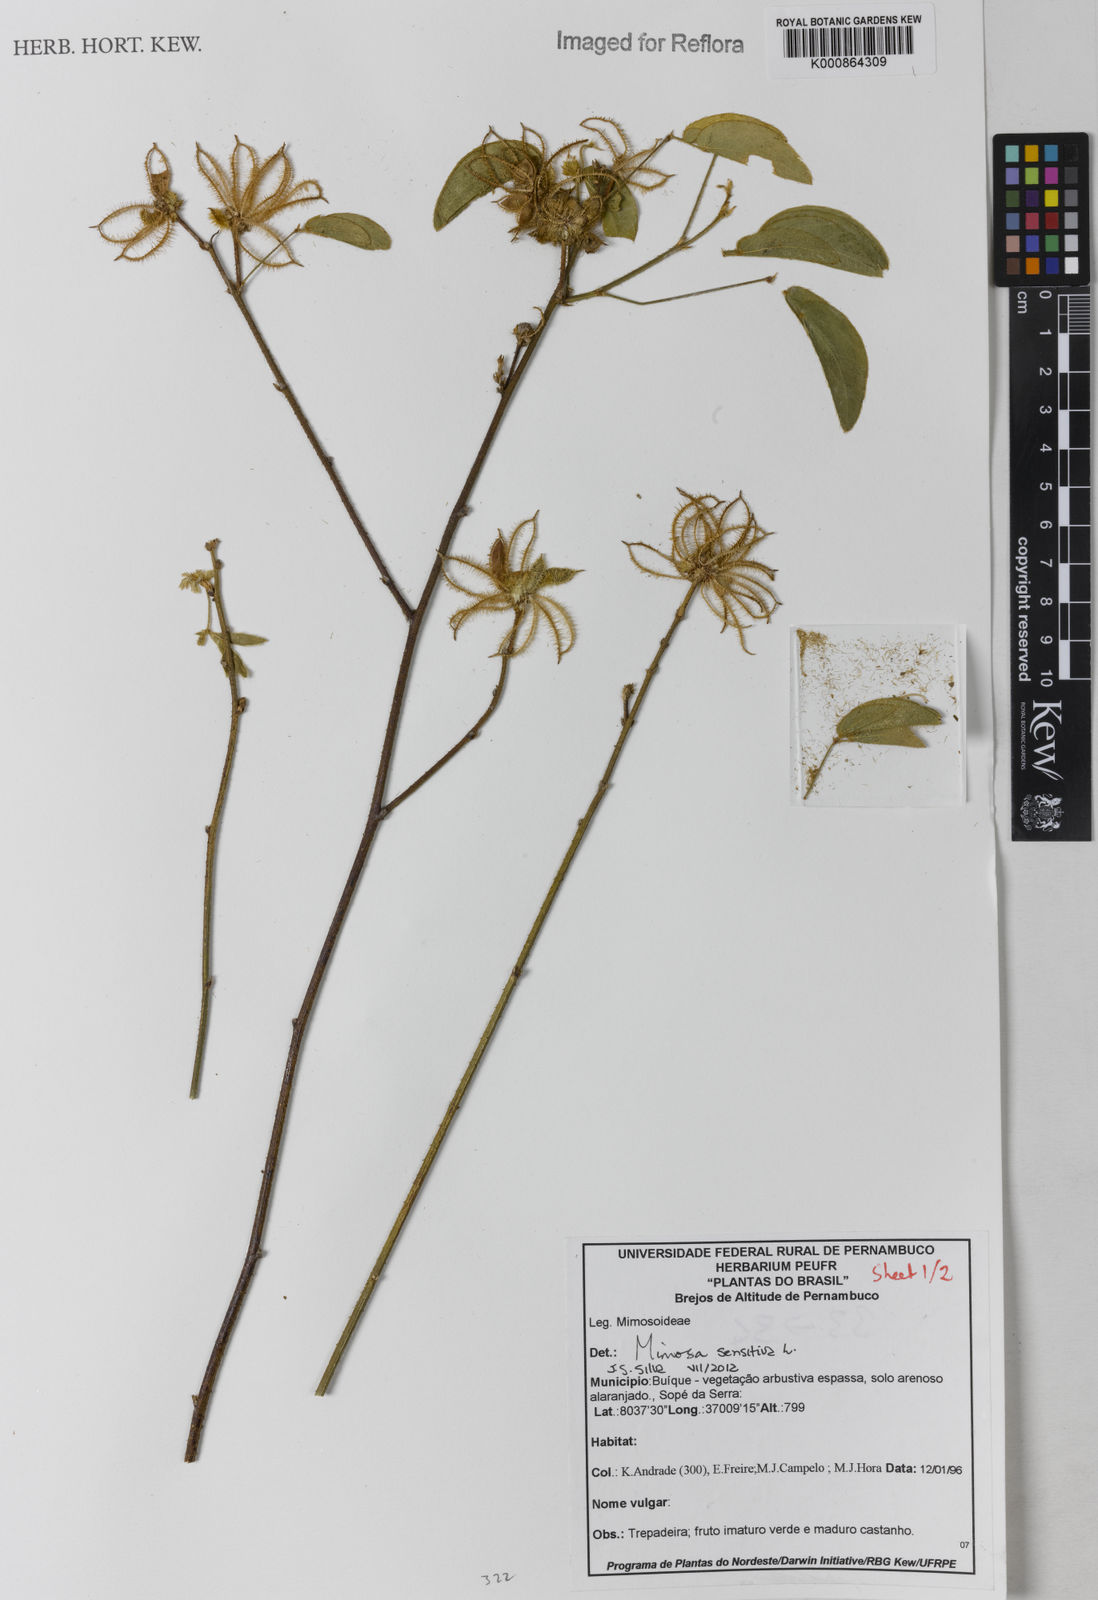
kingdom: Plantae
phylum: Tracheophyta
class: Magnoliopsida
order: Fabales
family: Fabaceae
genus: Mimosa
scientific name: Mimosa sensitiva
